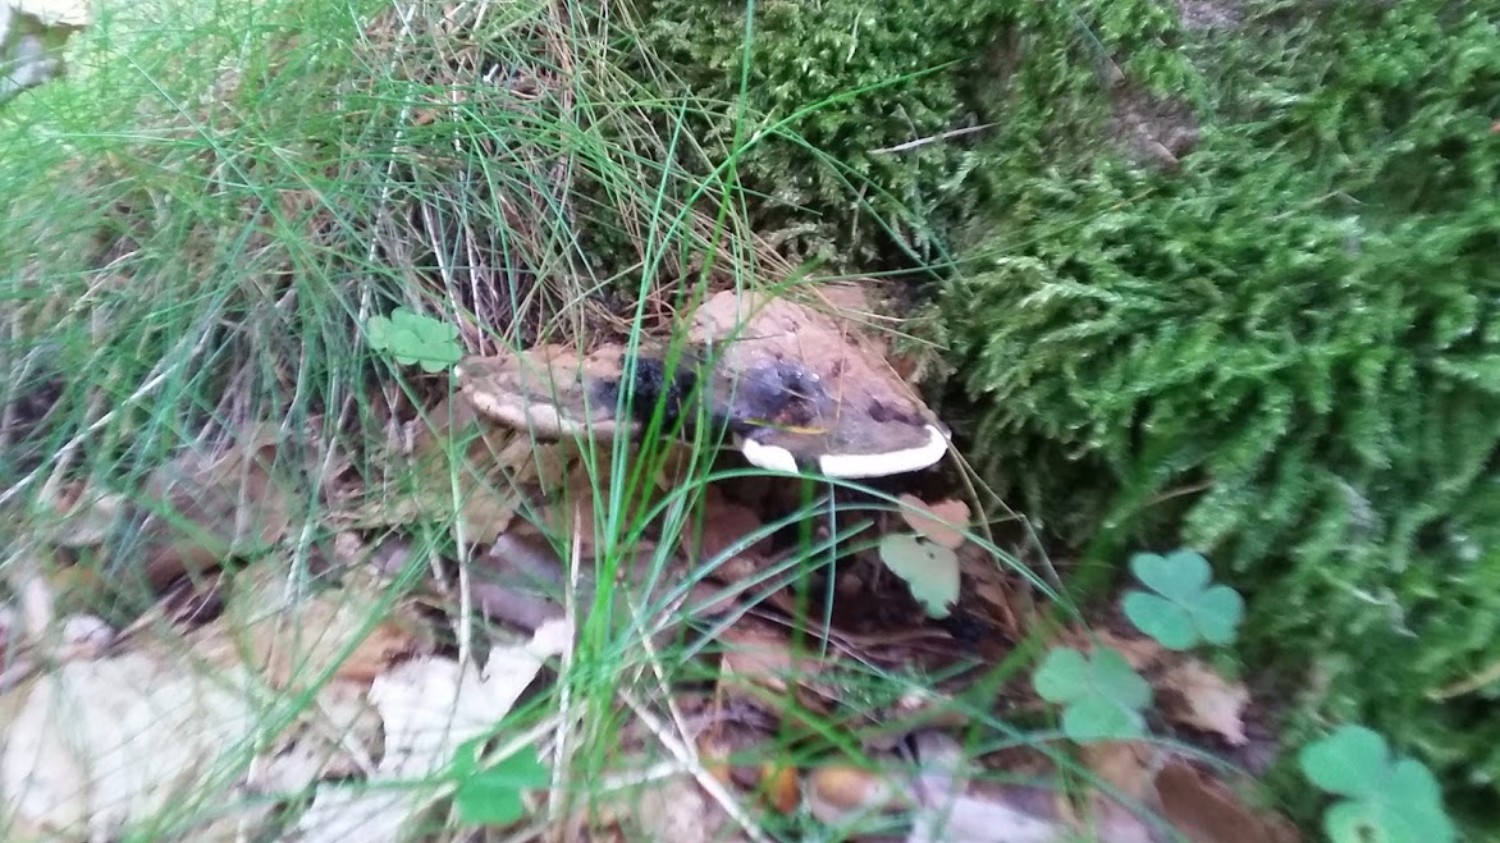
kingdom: Fungi
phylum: Basidiomycota
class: Agaricomycetes
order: Polyporales
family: Polyporaceae
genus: Ganoderma
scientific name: Ganoderma applanatum
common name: flad lakporesvamp
